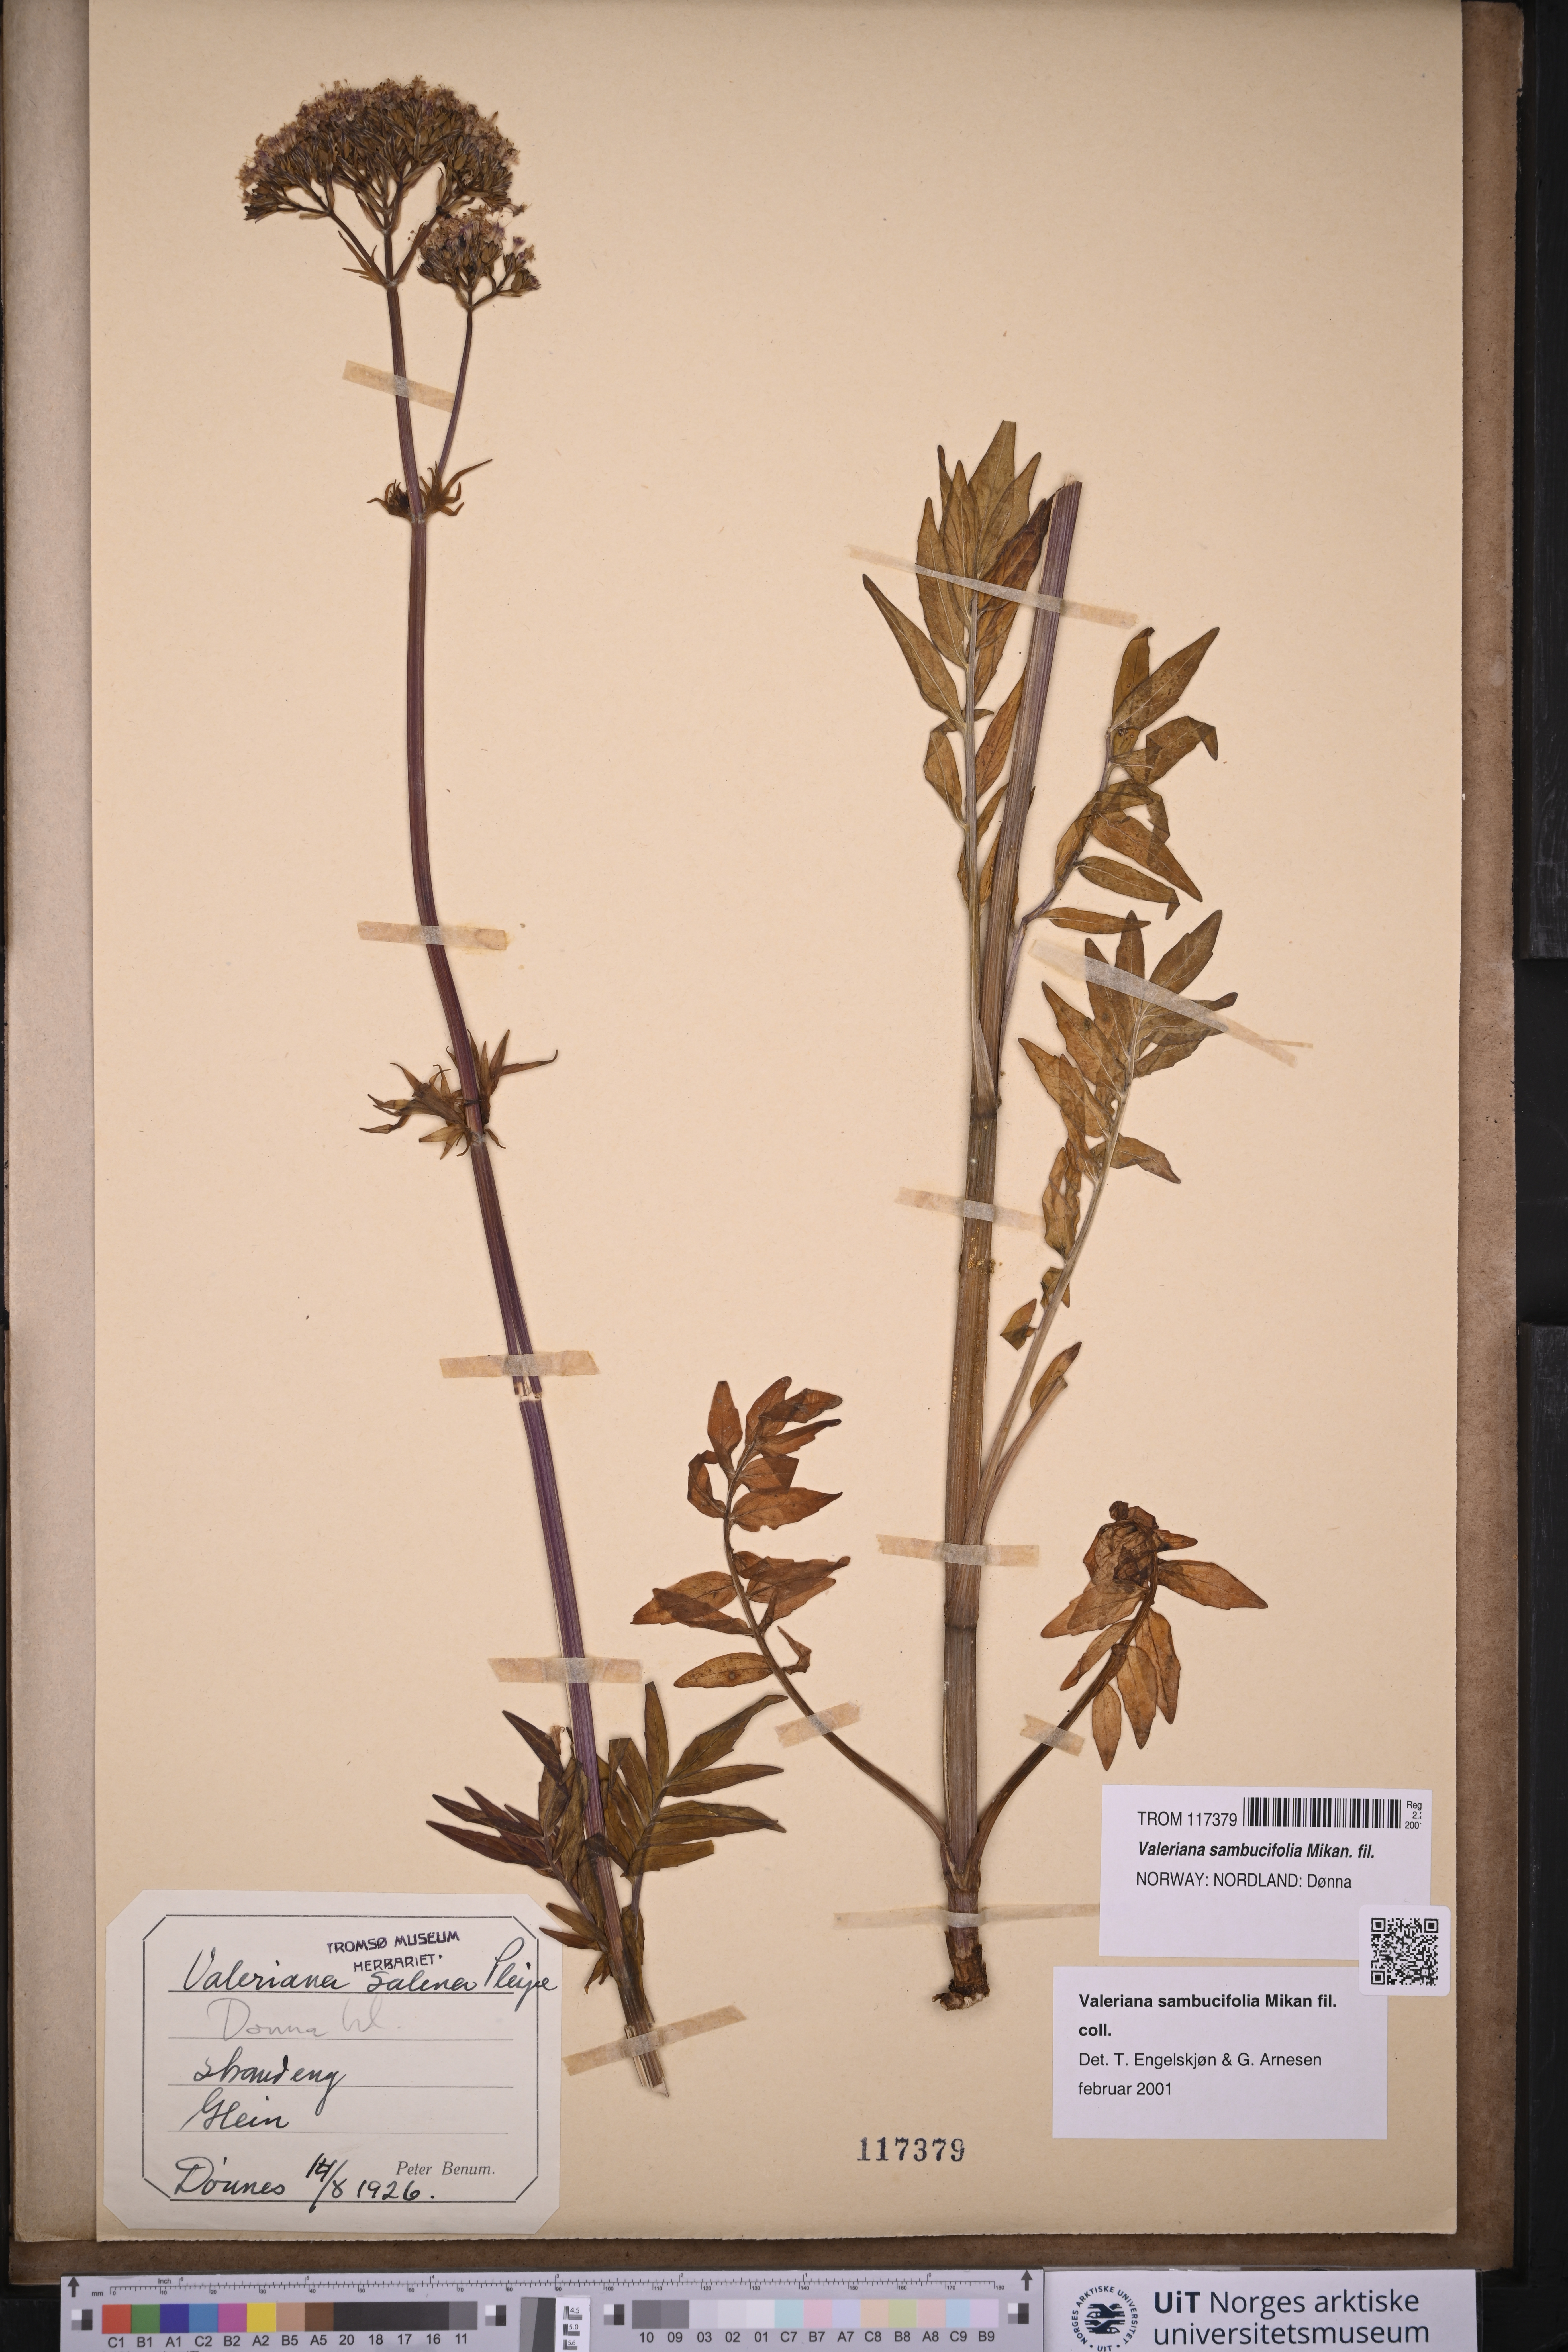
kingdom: Plantae
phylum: Tracheophyta
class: Magnoliopsida
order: Dipsacales
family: Caprifoliaceae
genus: Valeriana
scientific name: Valeriana excelsa
